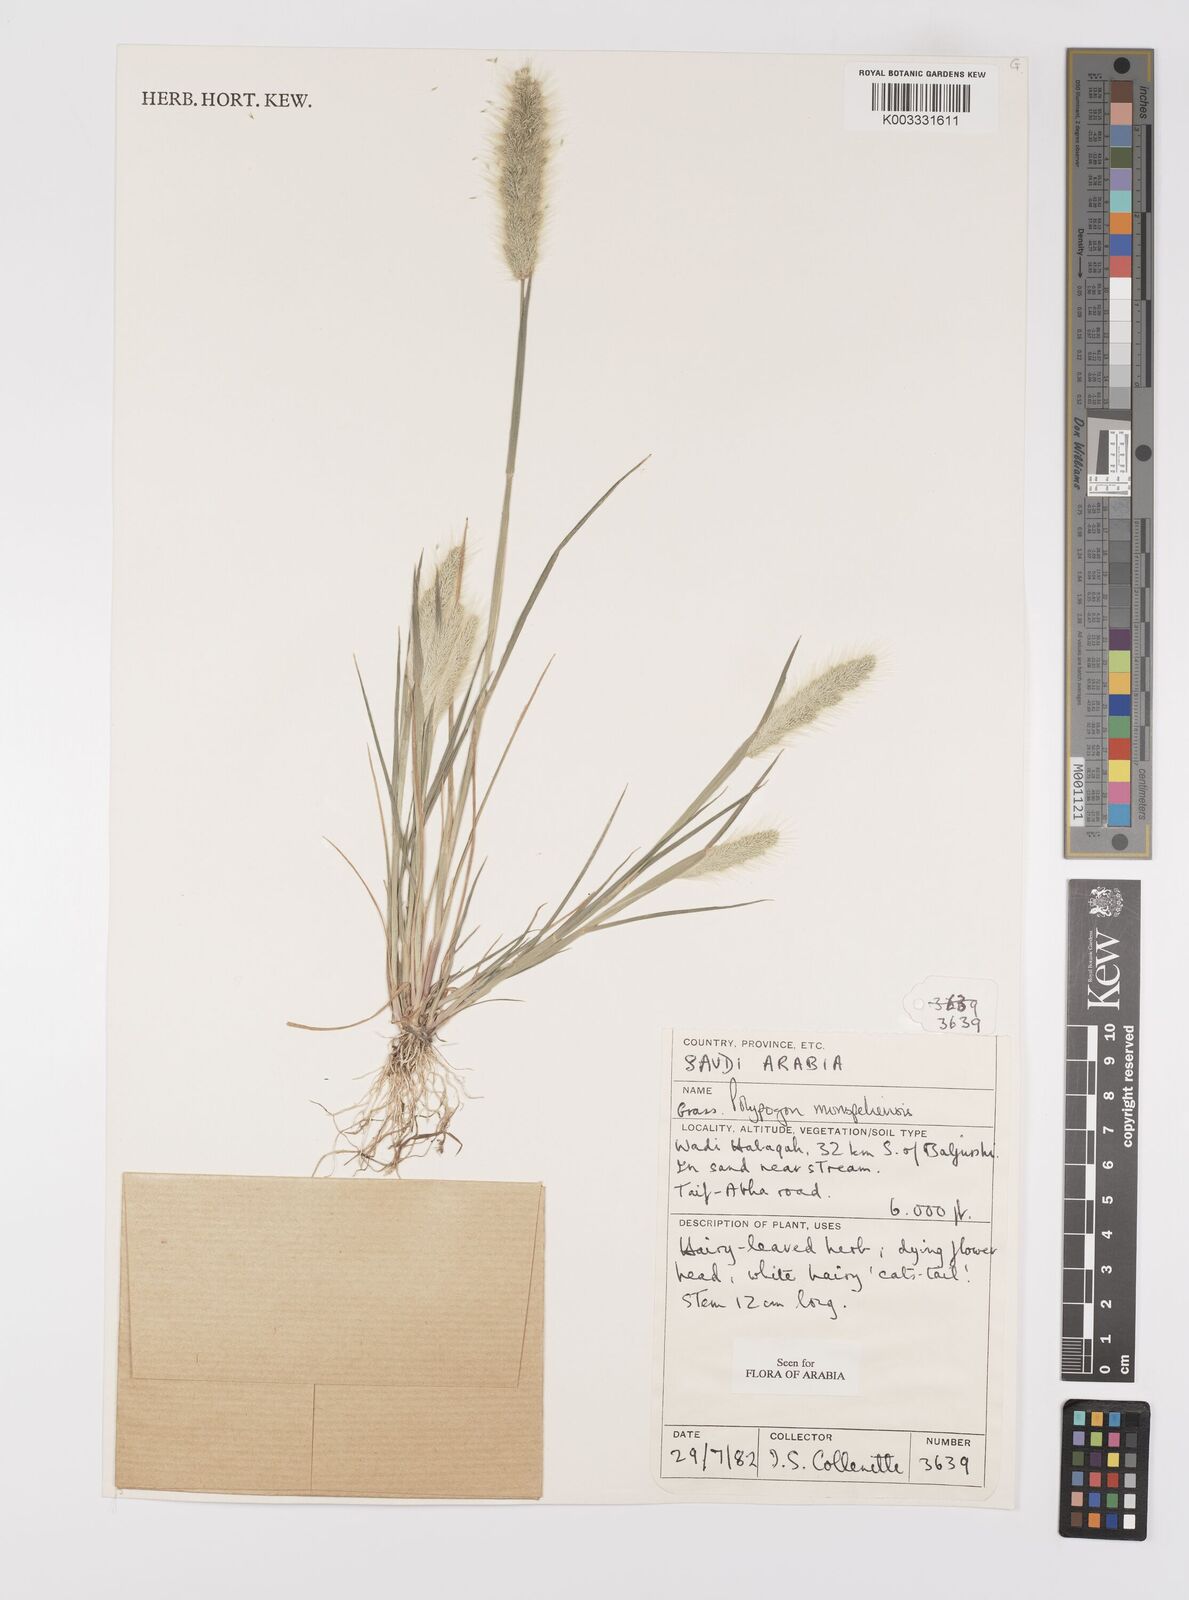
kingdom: Plantae
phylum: Tracheophyta
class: Liliopsida
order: Poales
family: Poaceae
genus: Polypogon
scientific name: Polypogon monspeliensis
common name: Annual rabbitsfoot grass
